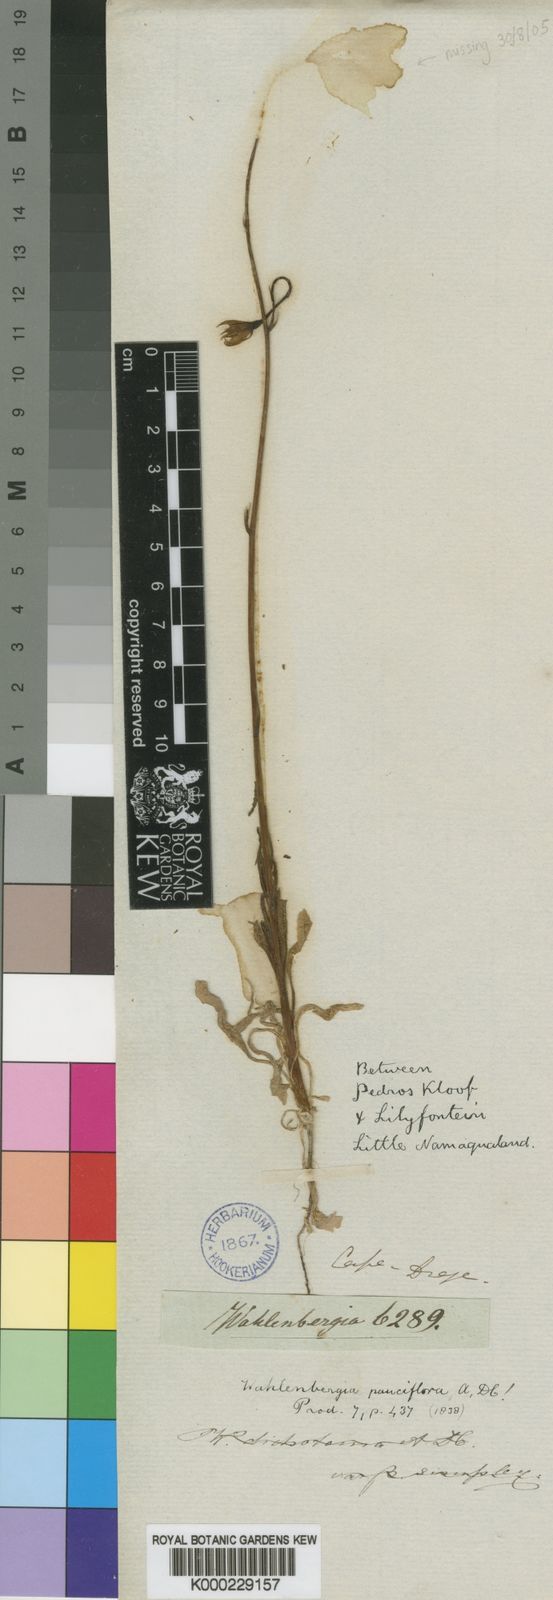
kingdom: Plantae
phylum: Tracheophyta
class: Magnoliopsida
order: Asterales
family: Campanulaceae
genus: Wahlenbergia
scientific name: Wahlenbergia pauciflora
